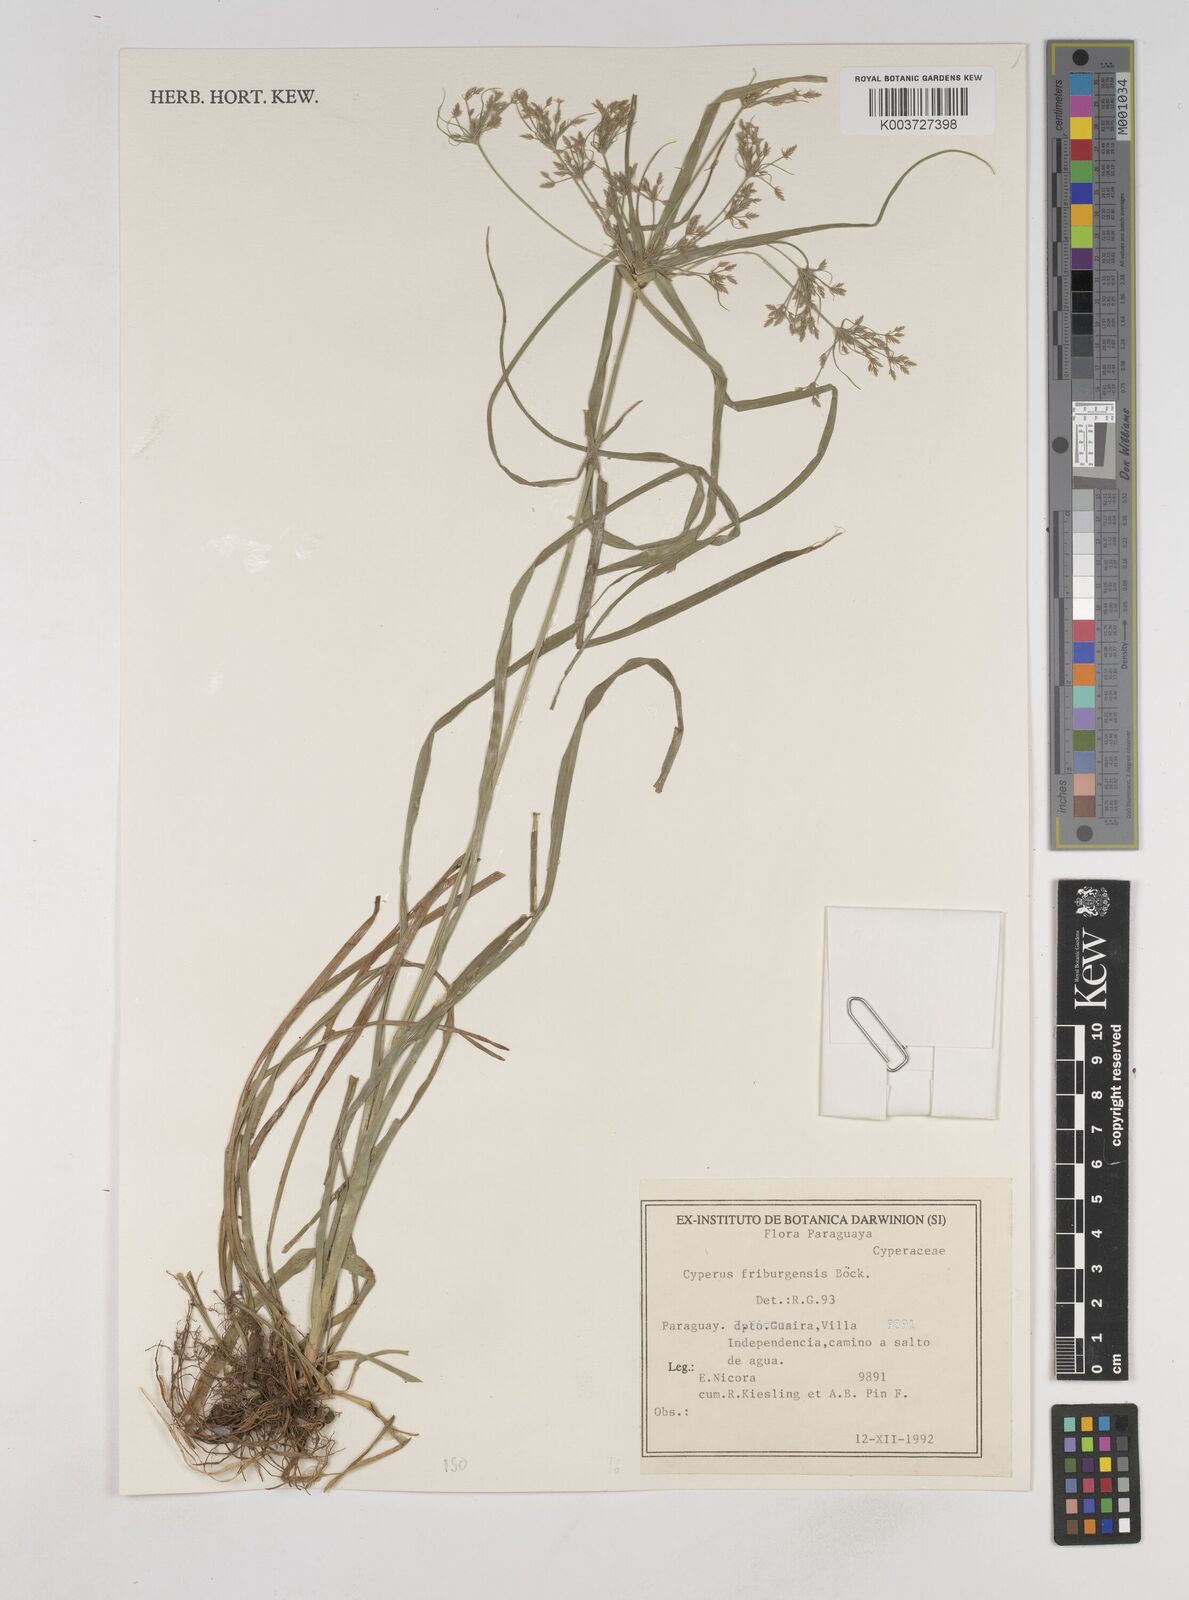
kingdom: Plantae
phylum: Tracheophyta
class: Liliopsida
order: Poales
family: Cyperaceae
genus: Cyperus
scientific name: Cyperus friburgensis
